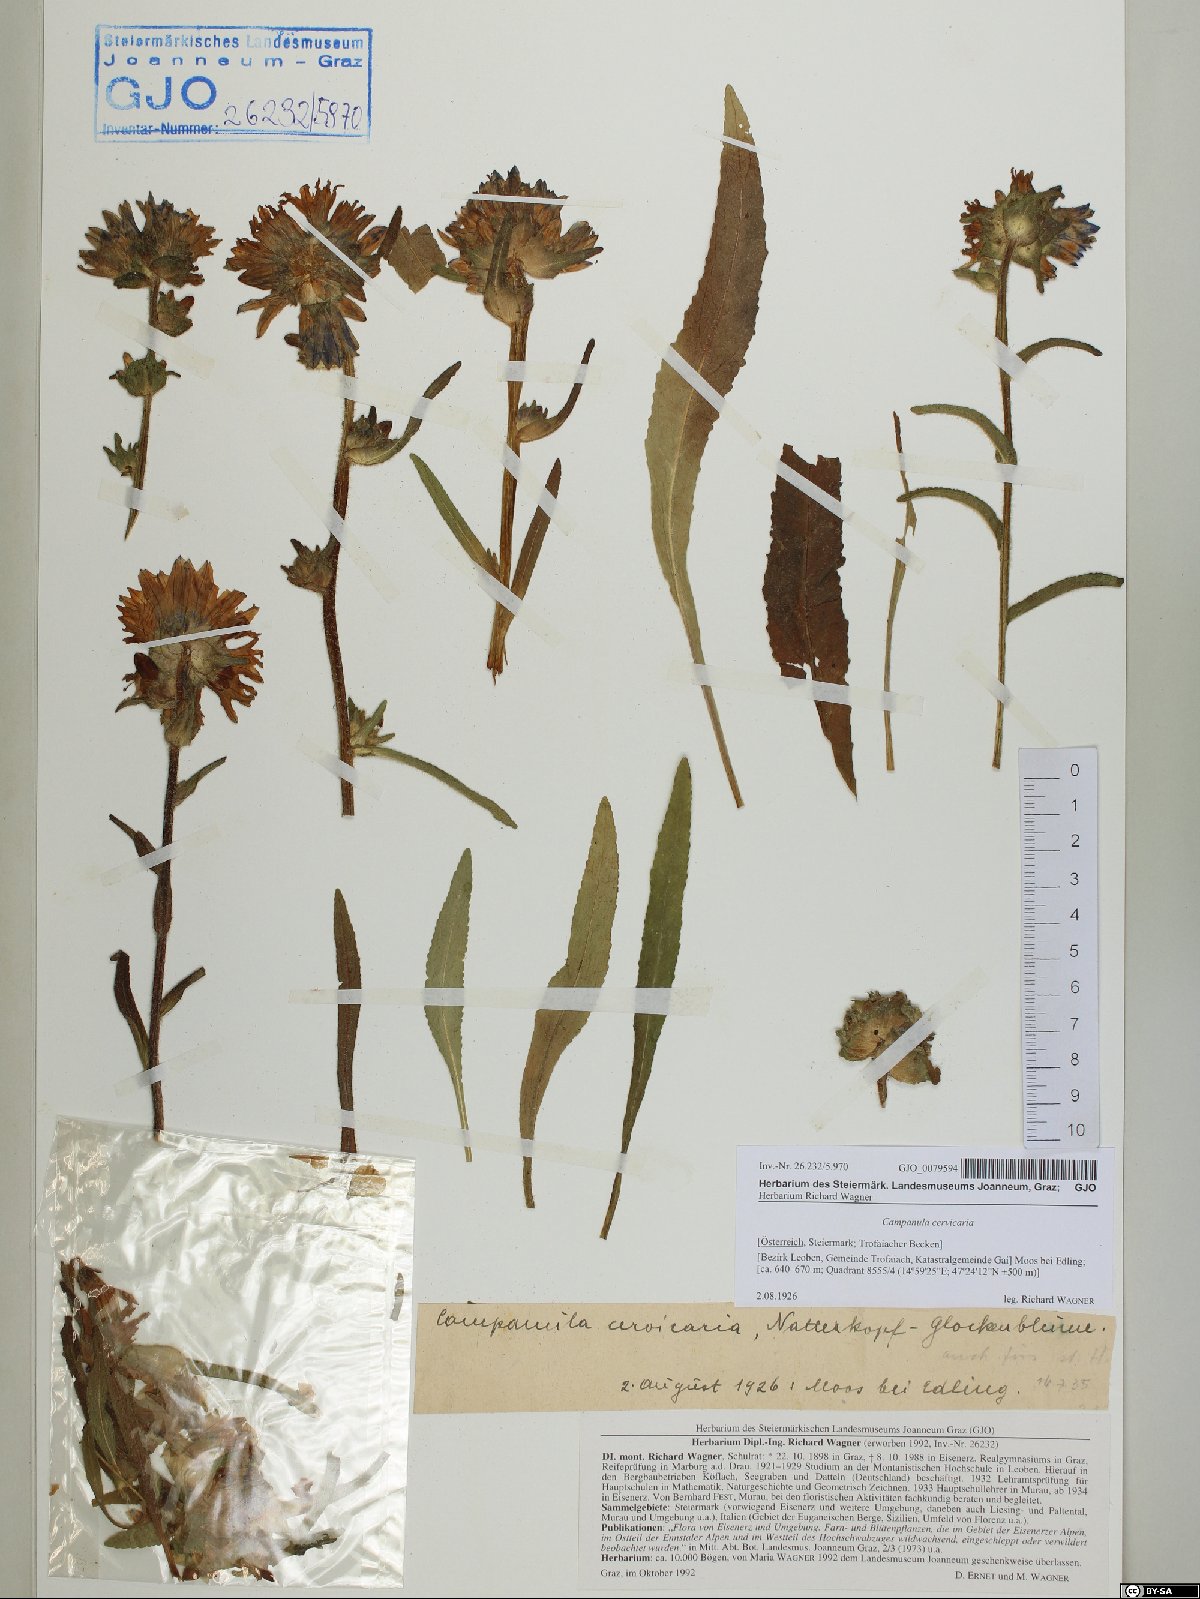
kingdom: Plantae
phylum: Tracheophyta
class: Magnoliopsida
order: Asterales
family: Campanulaceae
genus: Campanula
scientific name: Campanula cervicaria
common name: Bristly bellflower
